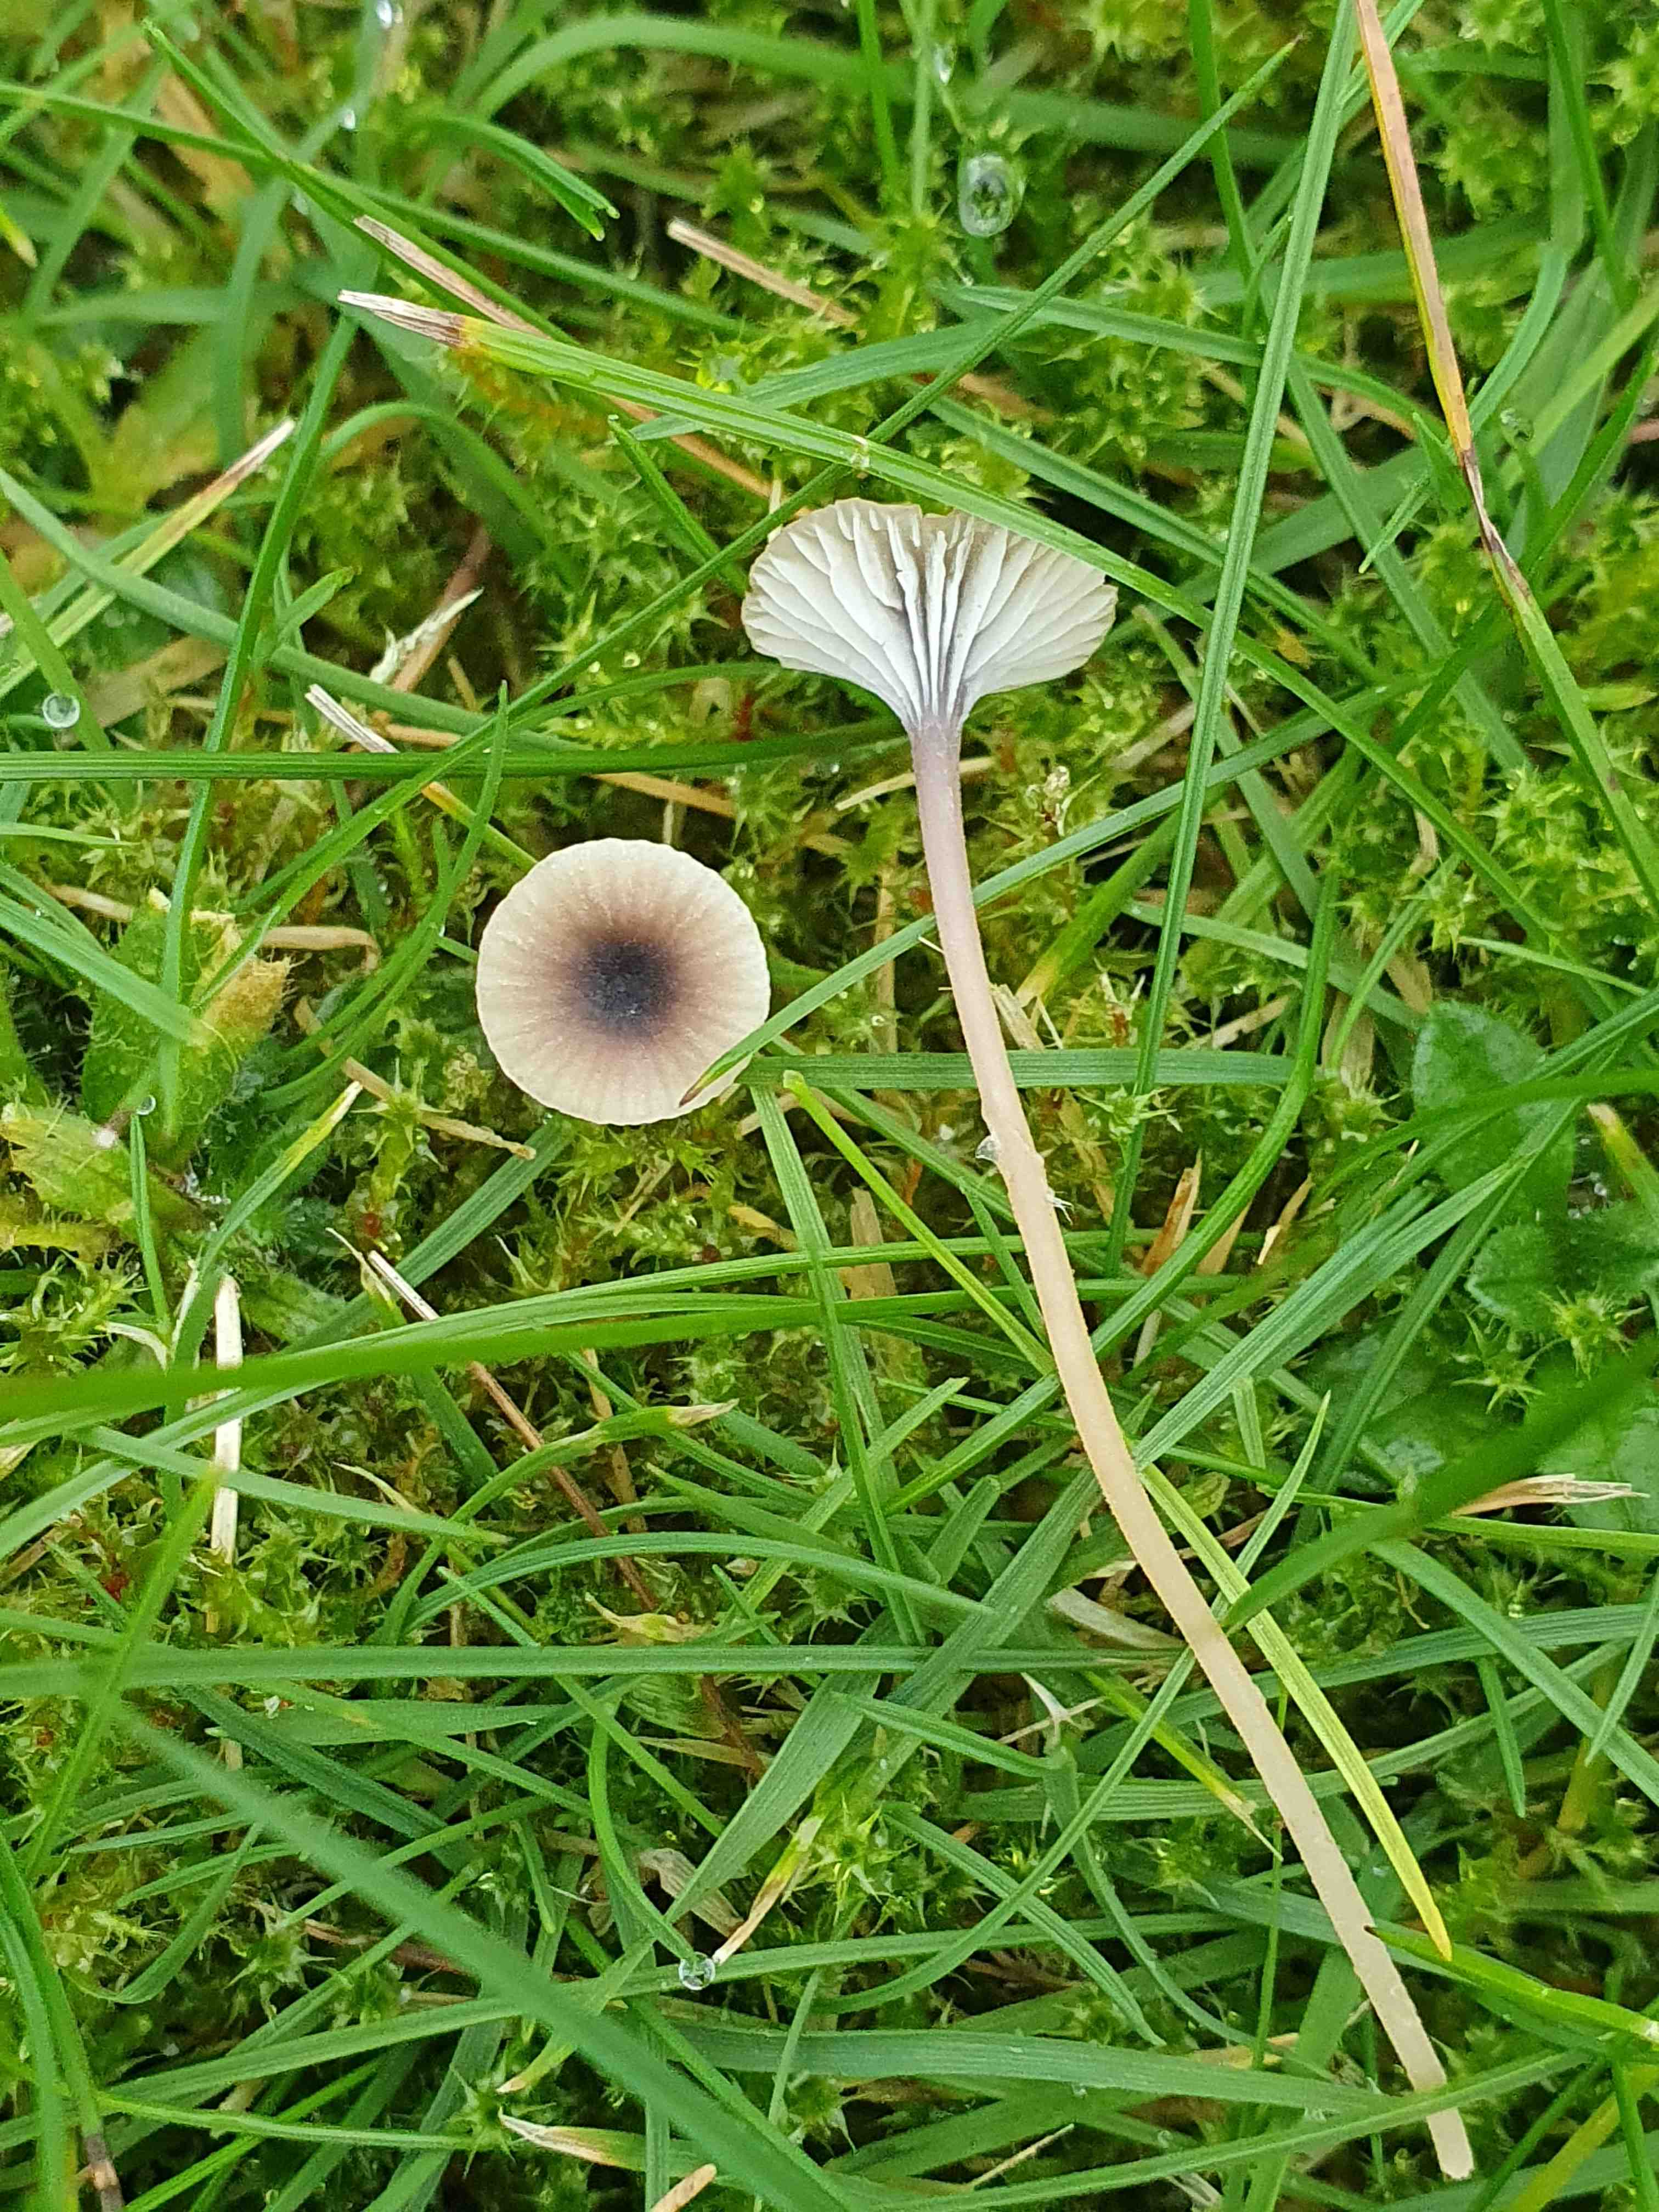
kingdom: Fungi
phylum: Basidiomycota
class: Agaricomycetes
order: Hymenochaetales
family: Rickenellaceae
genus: Rickenella
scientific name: Rickenella swartzii
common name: finstokket mosnavlehat
